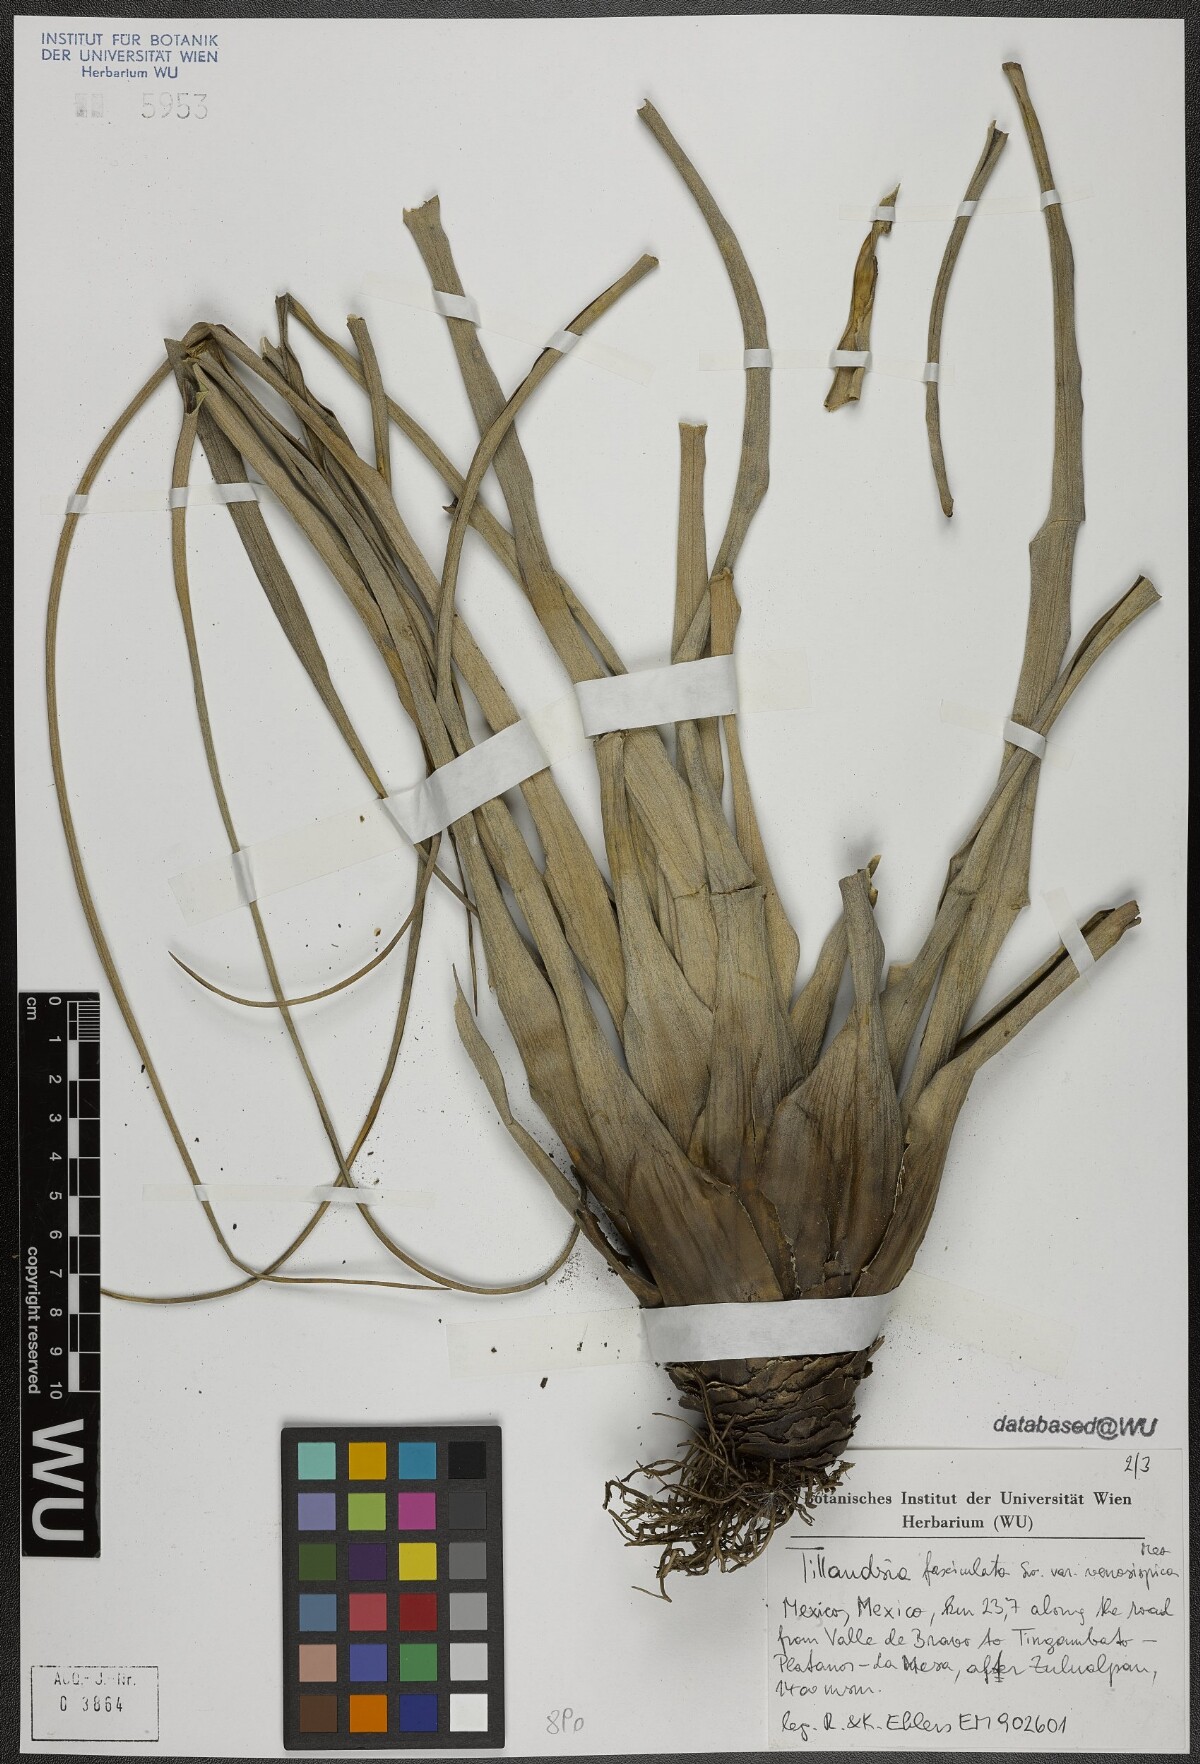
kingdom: Plantae
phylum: Tracheophyta
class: Liliopsida
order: Poales
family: Bromeliaceae
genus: Tillandsia
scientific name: Tillandsia fasciculata
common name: Giant airplant
